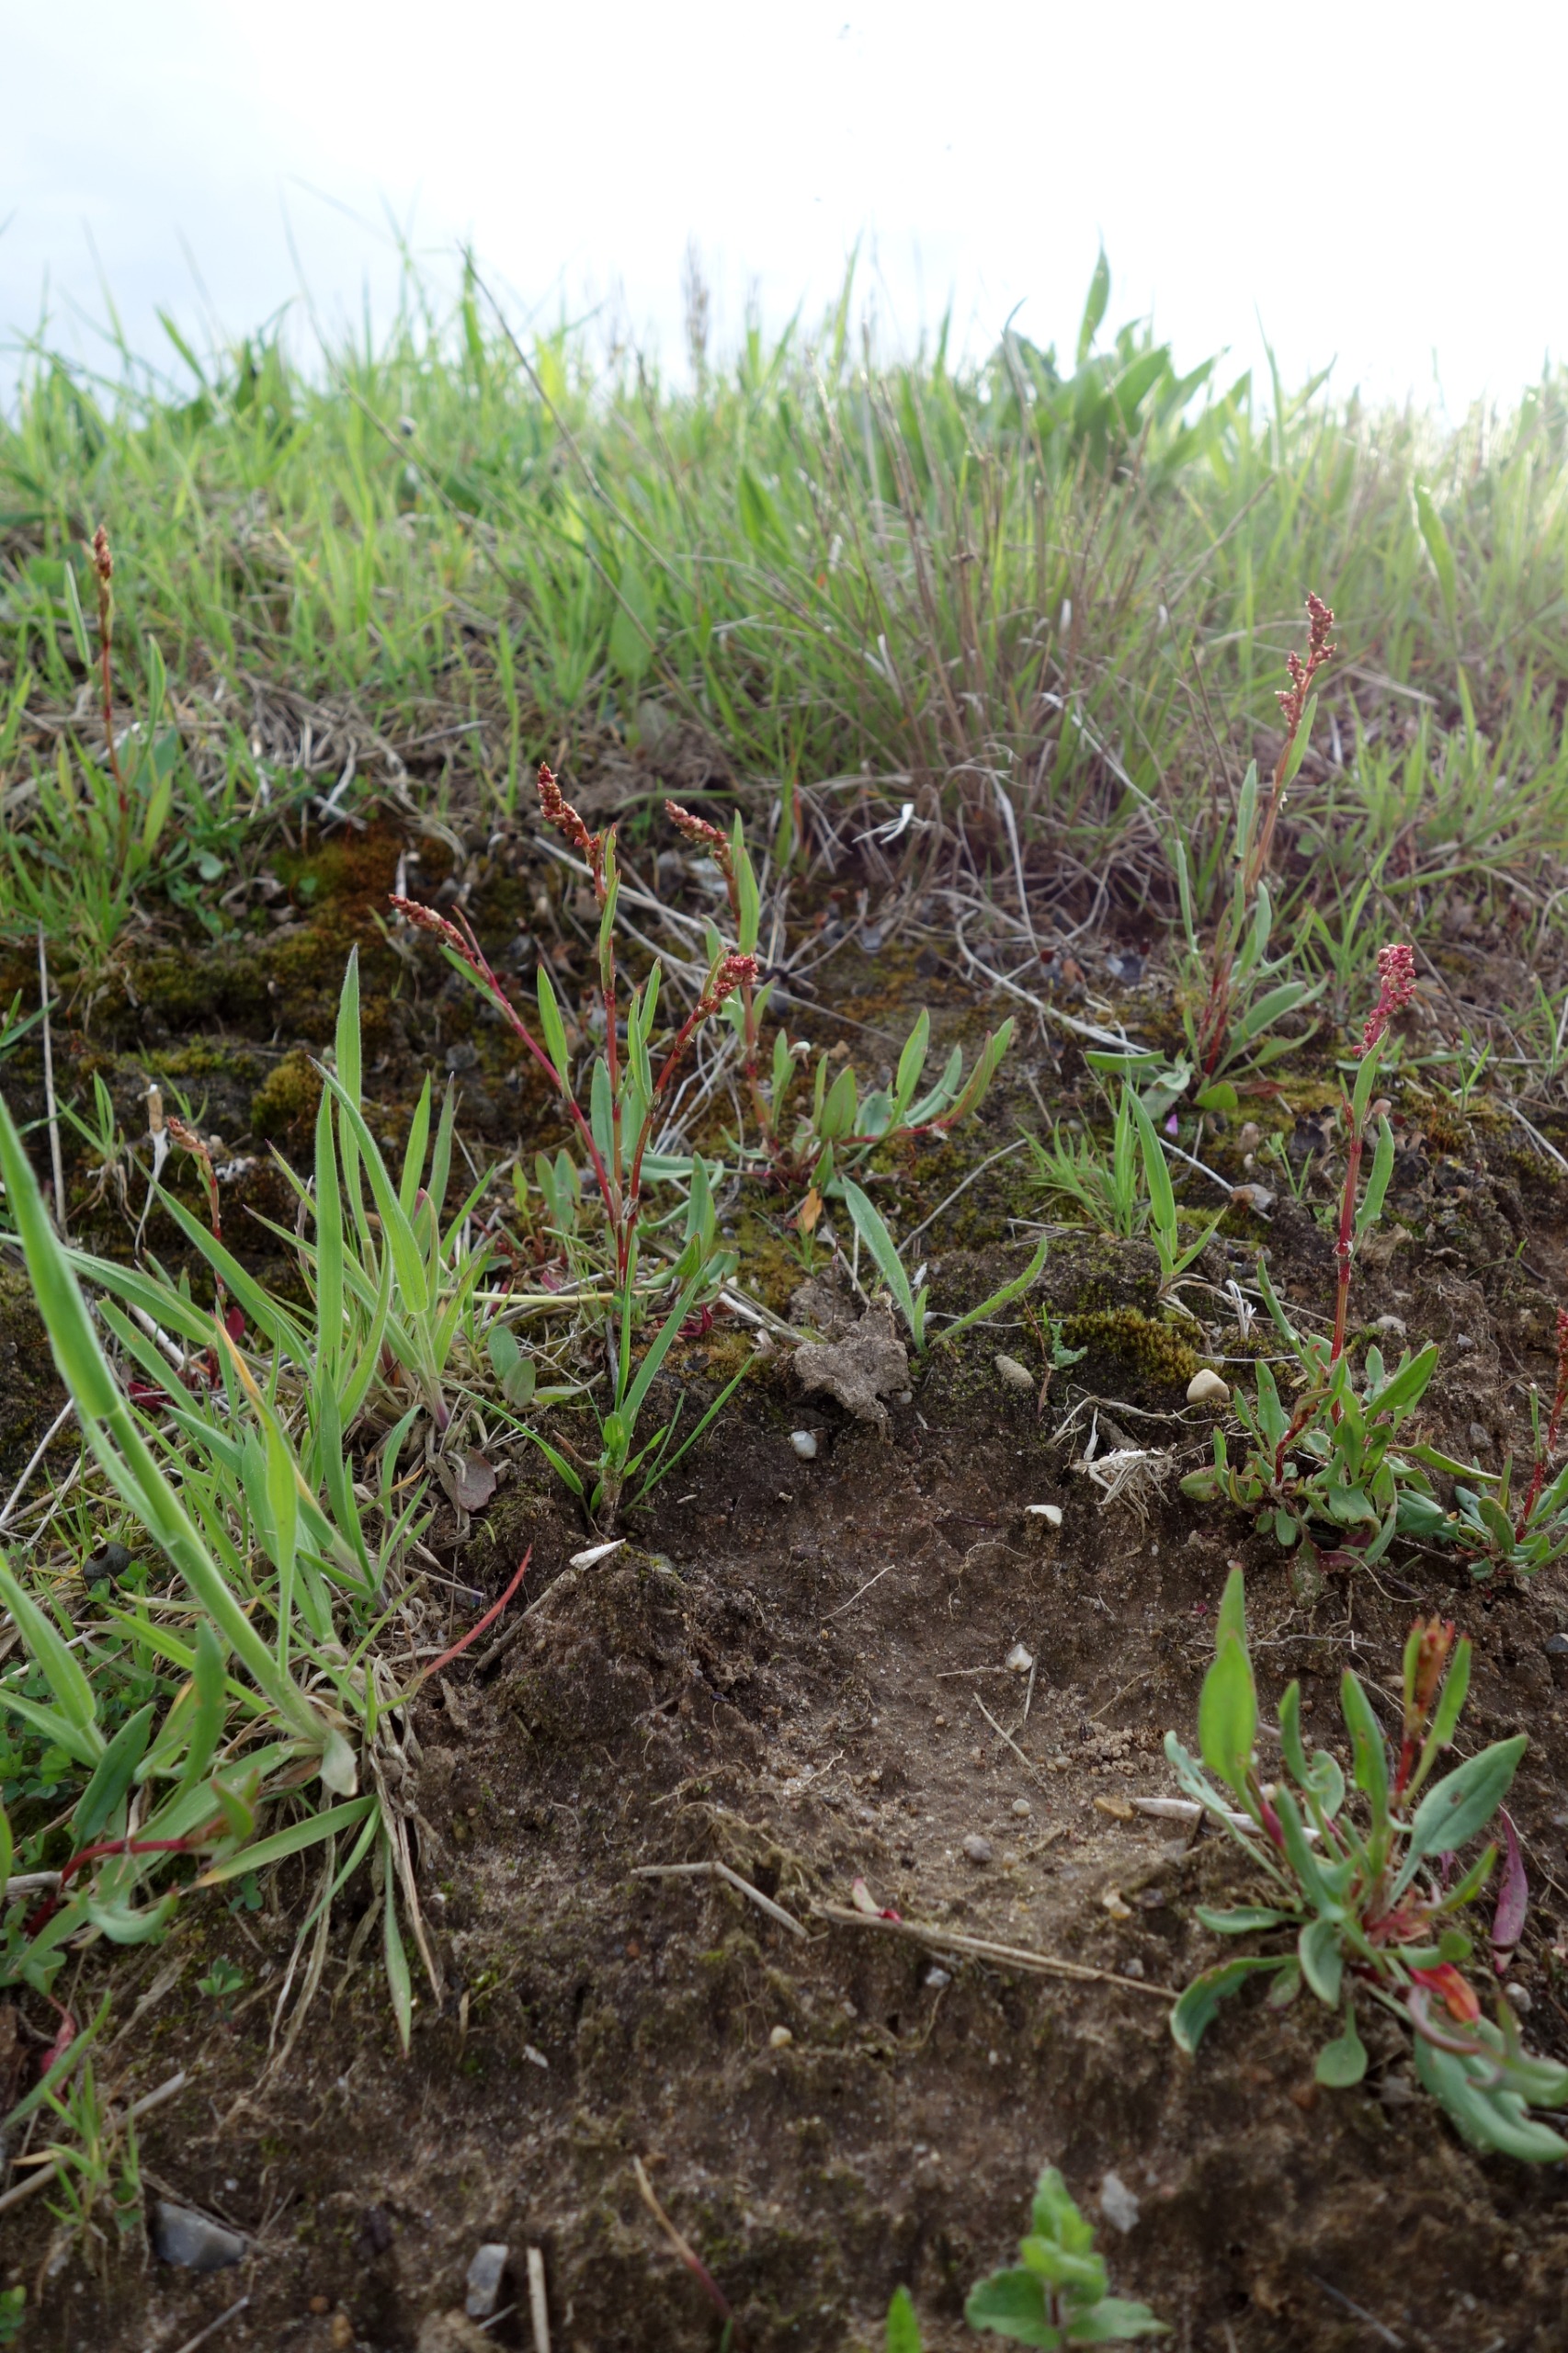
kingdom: Plantae
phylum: Tracheophyta
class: Magnoliopsida
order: Caryophyllales
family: Polygonaceae
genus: Rumex
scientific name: Rumex acetosella
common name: Rødknæ
